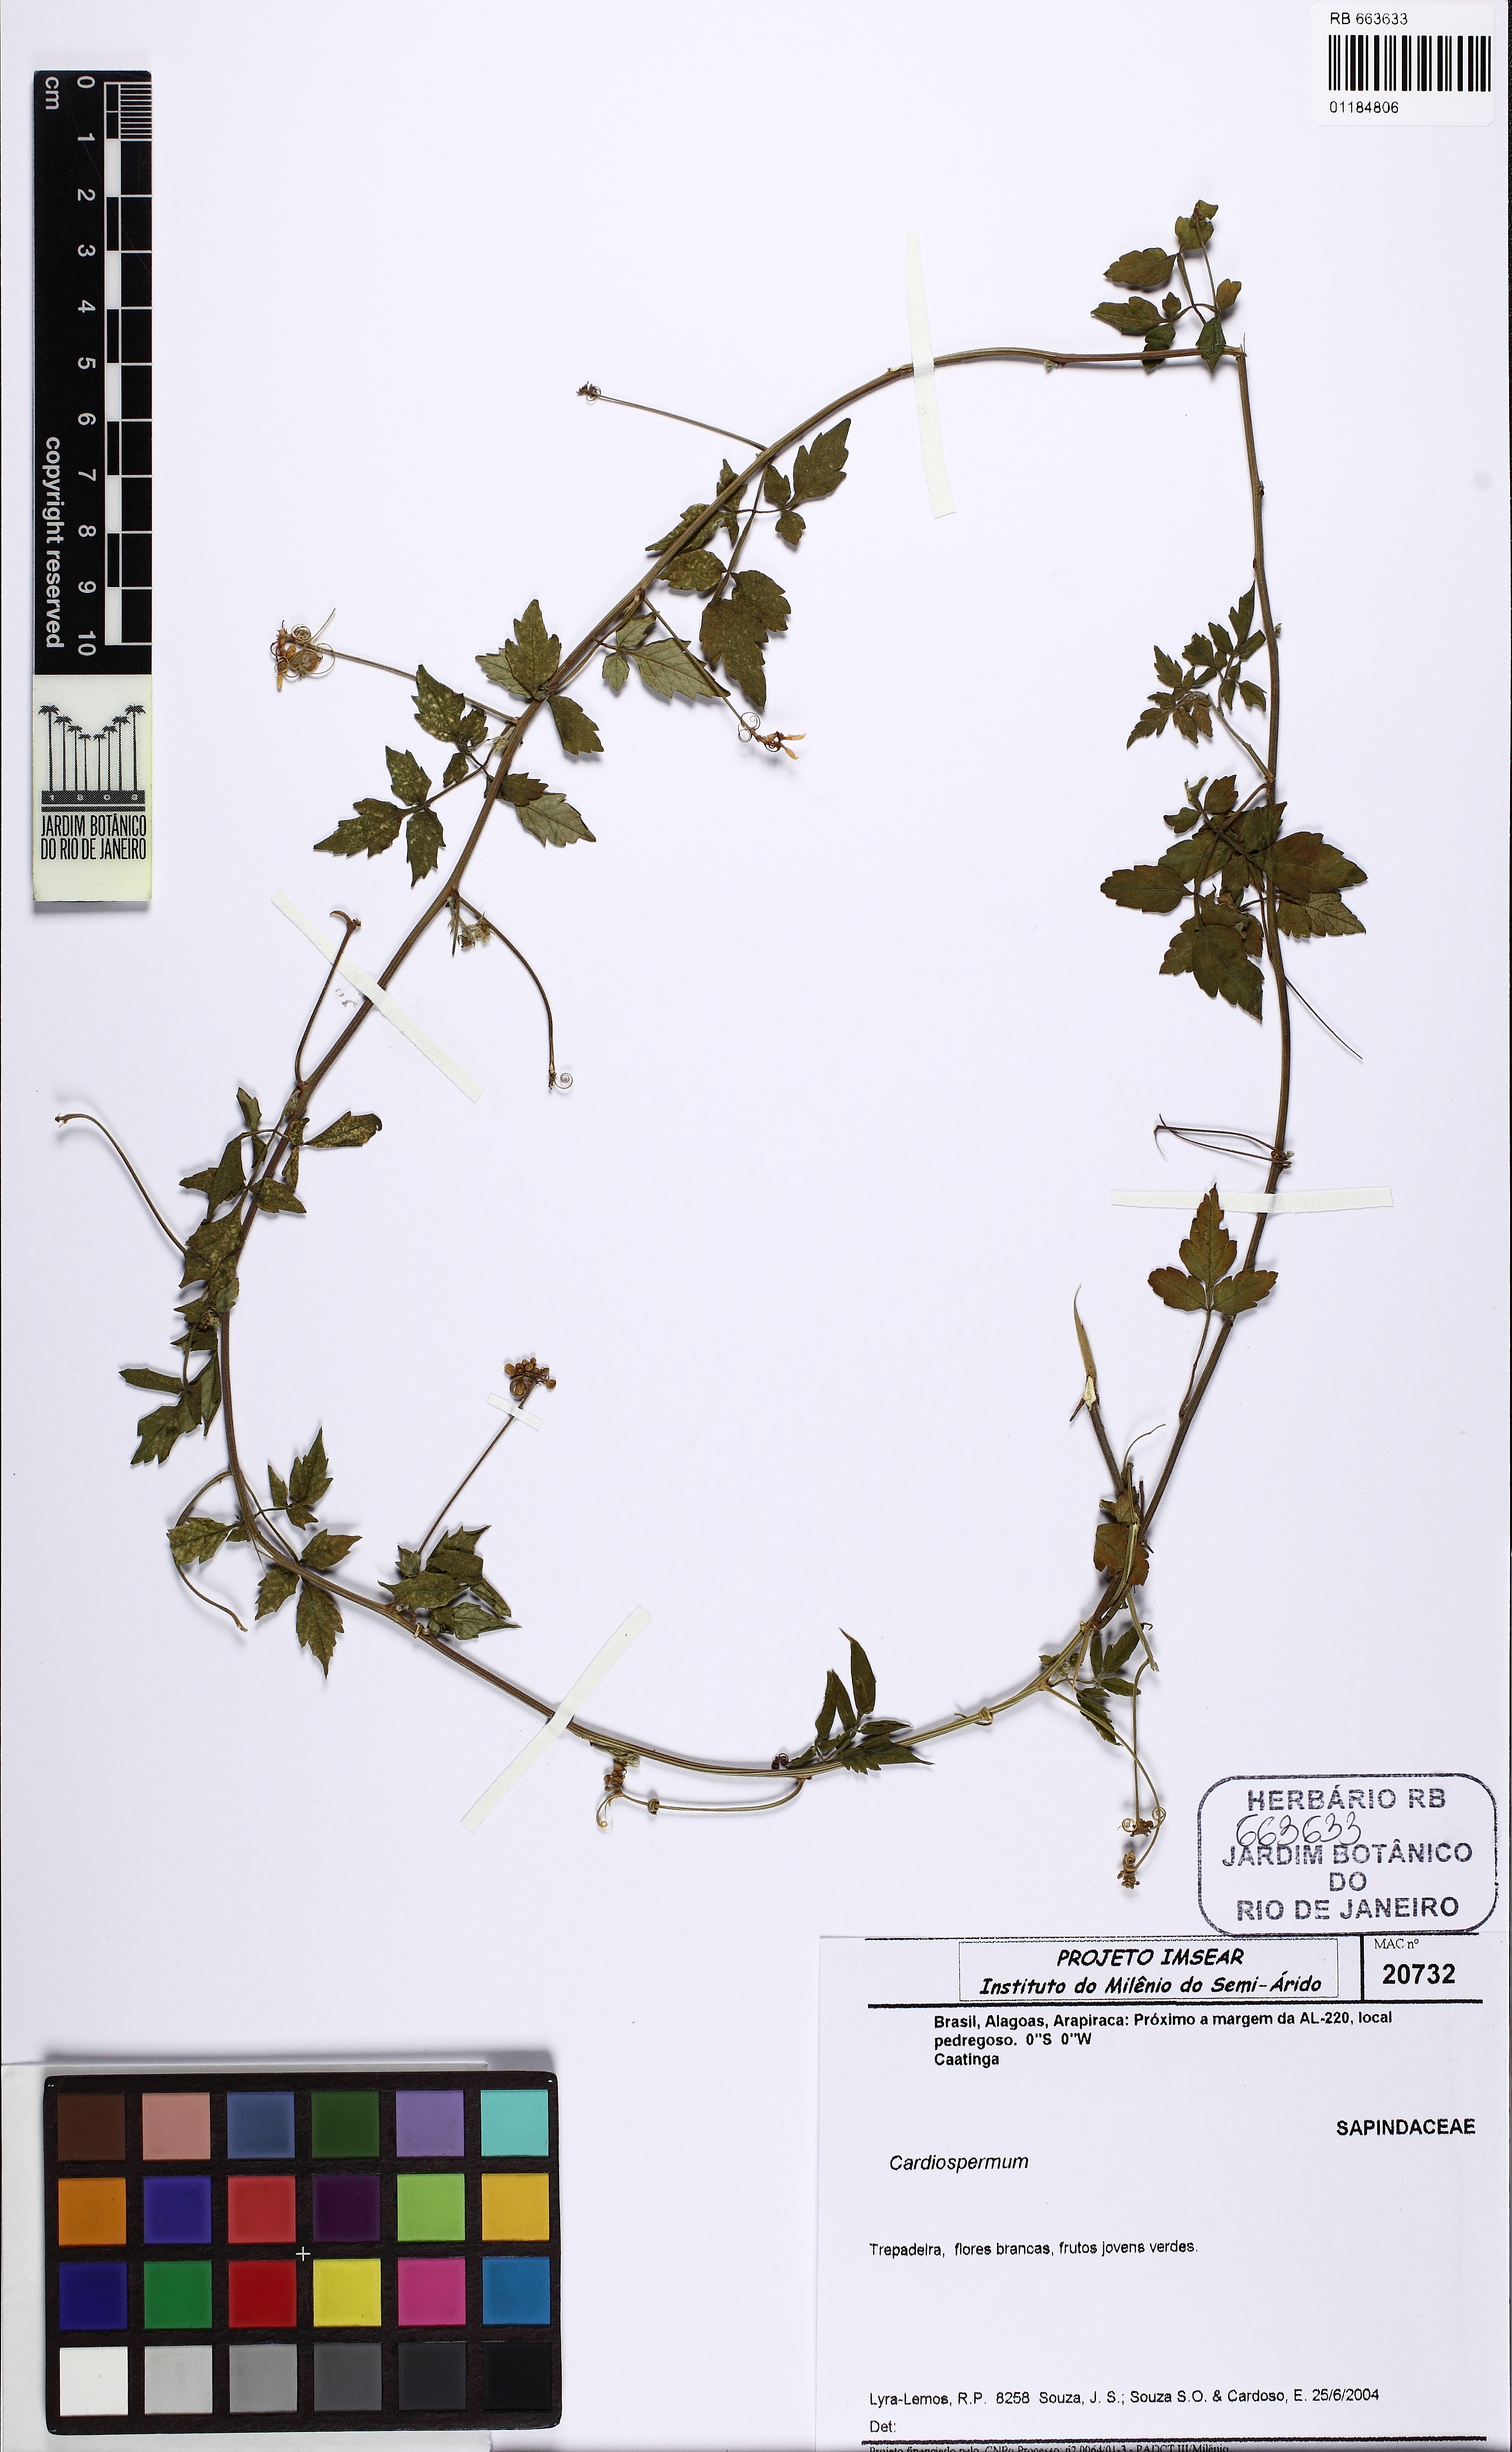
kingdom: Plantae
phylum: Tracheophyta
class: Magnoliopsida
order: Sapindales
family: Sapindaceae
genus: Cardiospermum
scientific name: Cardiospermum
